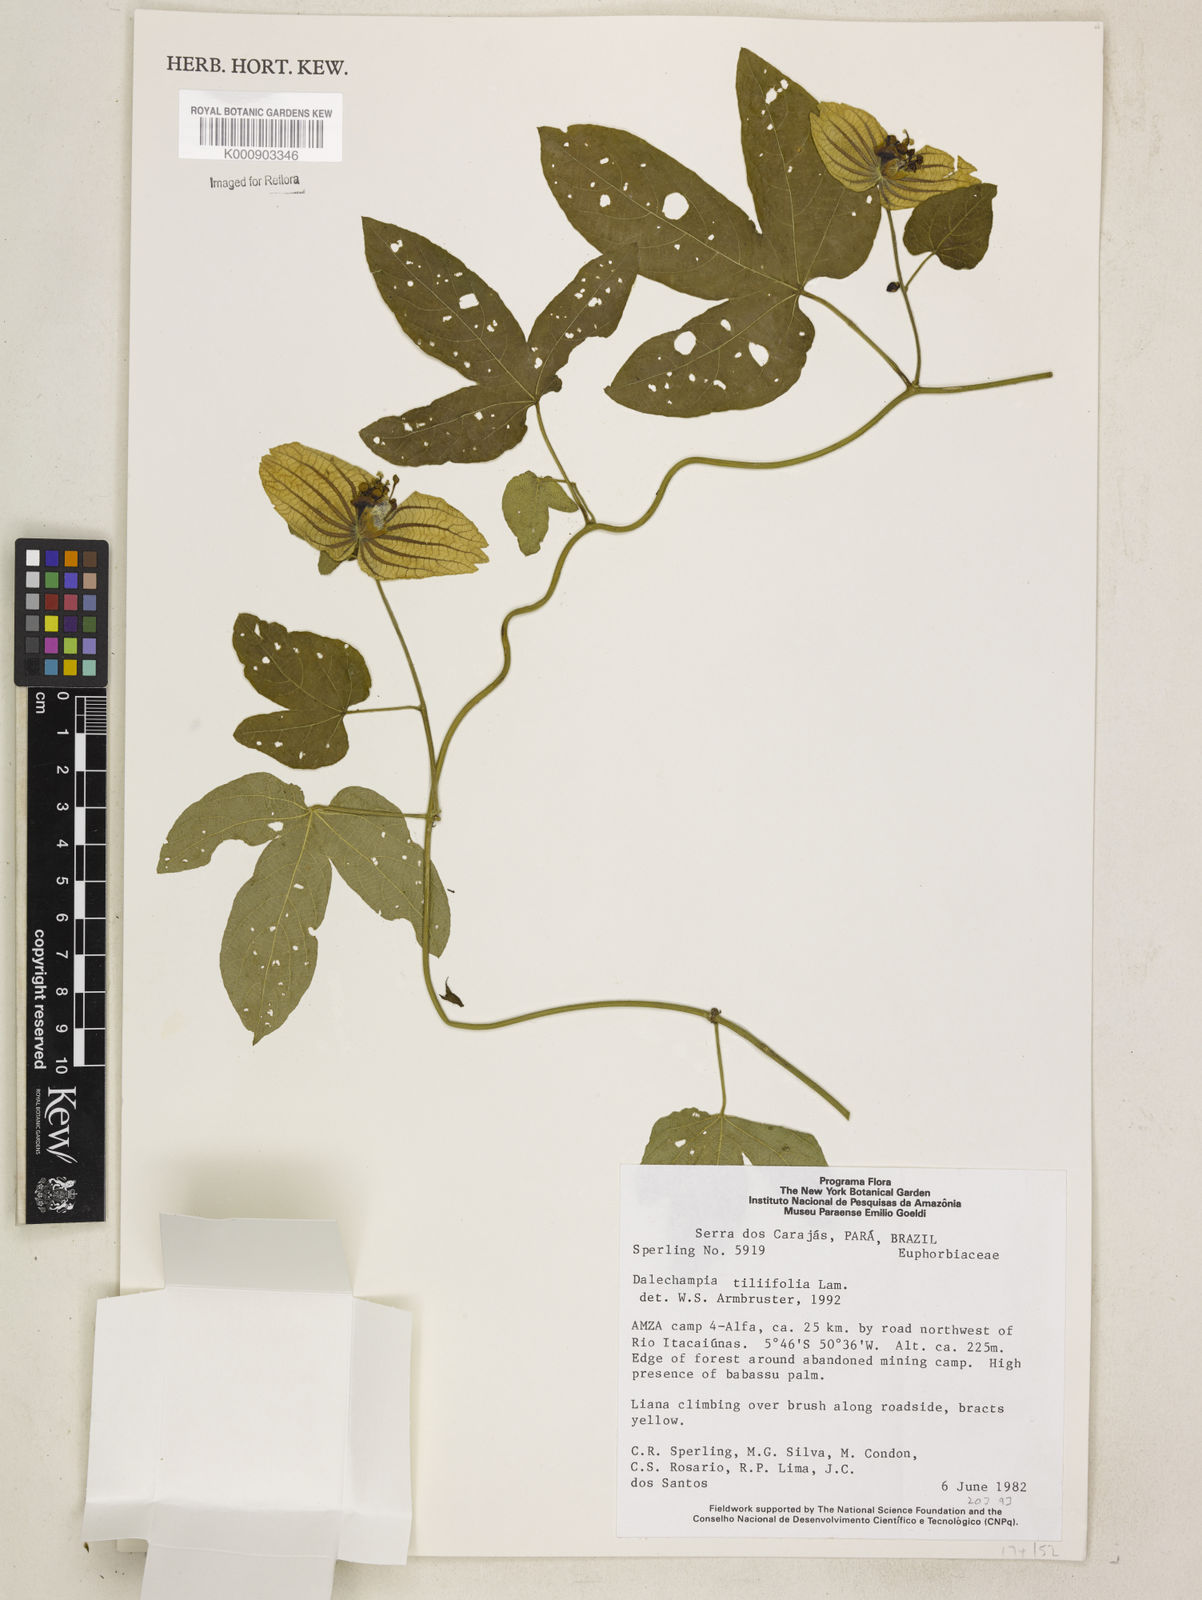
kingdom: Plantae
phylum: Tracheophyta
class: Magnoliopsida
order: Malpighiales
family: Euphorbiaceae
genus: Dalechampia
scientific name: Dalechampia tiliifolia
